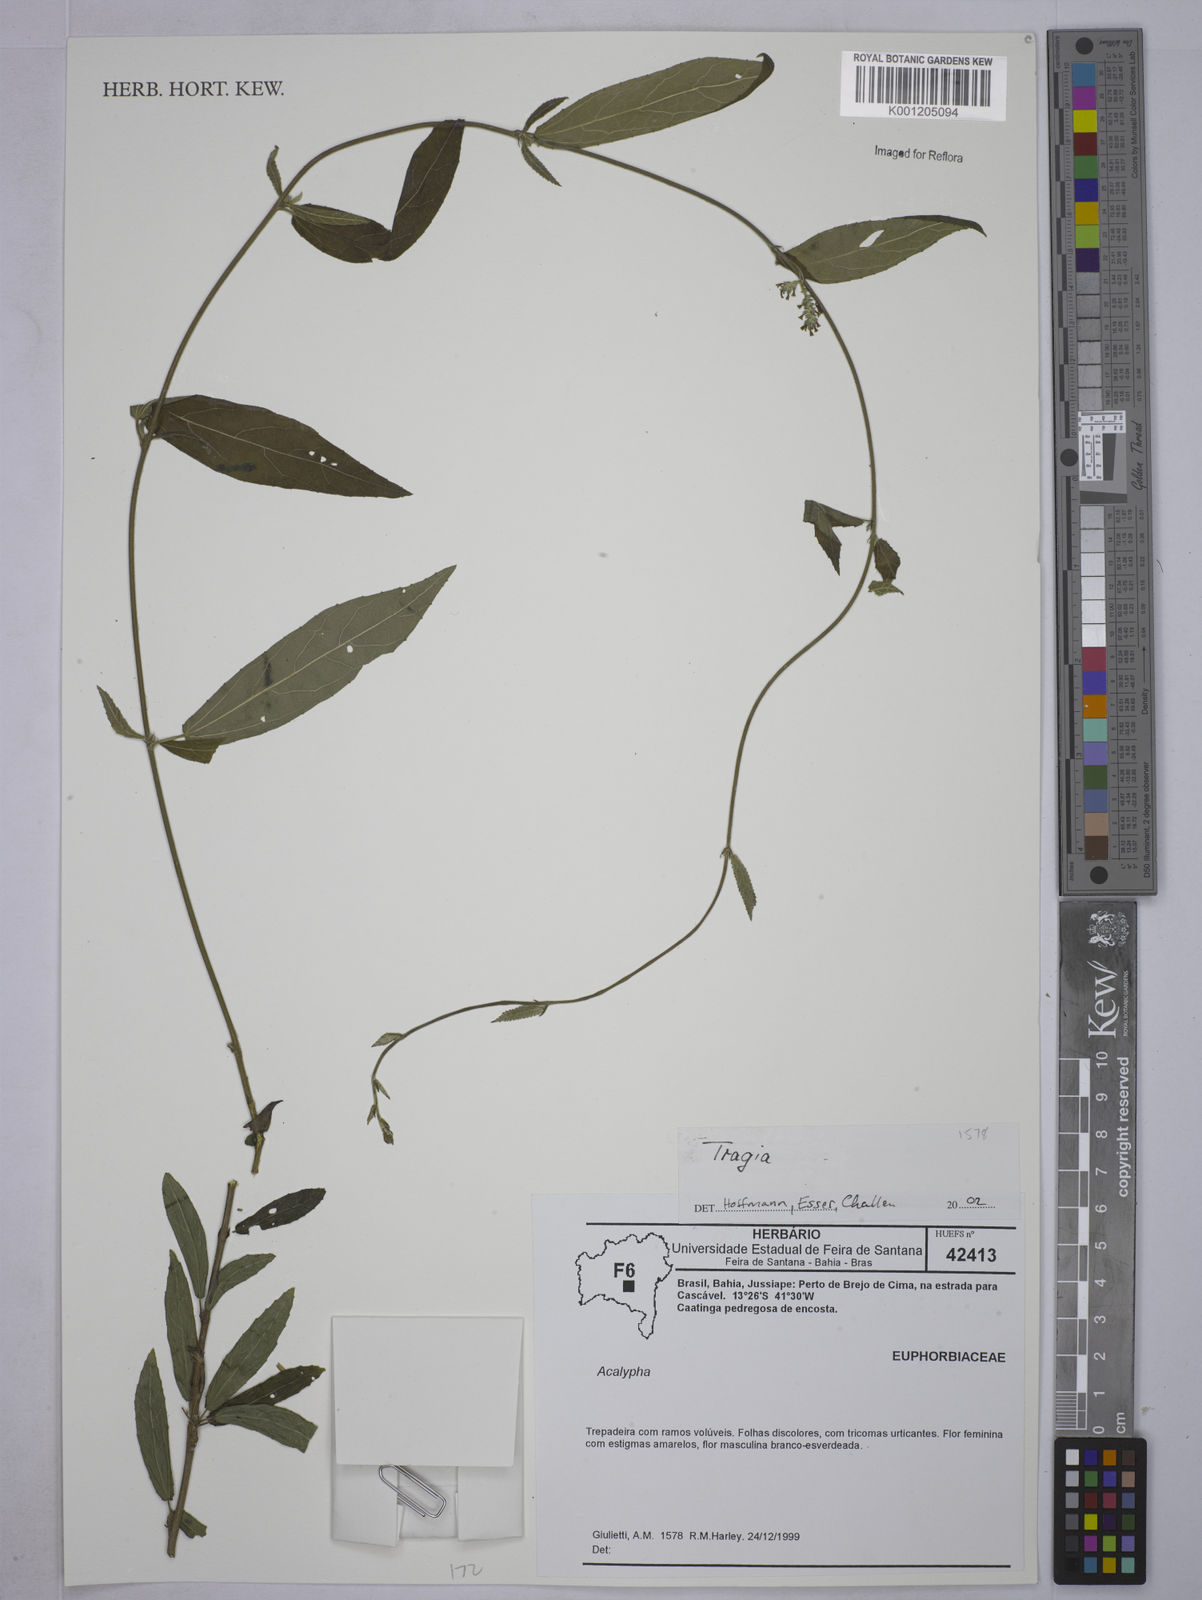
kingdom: Plantae
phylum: Tracheophyta
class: Magnoliopsida
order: Malpighiales
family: Euphorbiaceae
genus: Tragia
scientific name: Tragia
